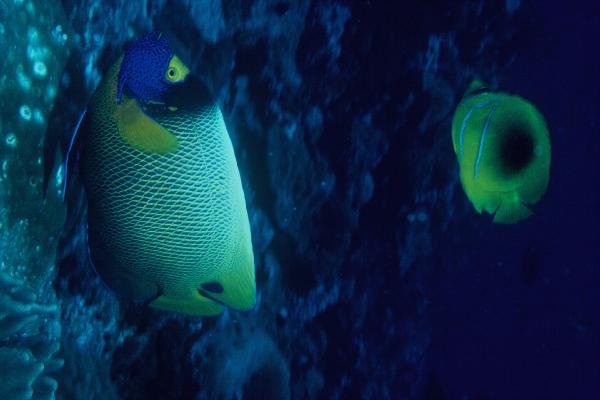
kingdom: Animalia
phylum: Chordata
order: Perciformes
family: Pomacanthidae
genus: Pomacanthus
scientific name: Pomacanthus xanthometopon
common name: Yellow-faced angelfish
